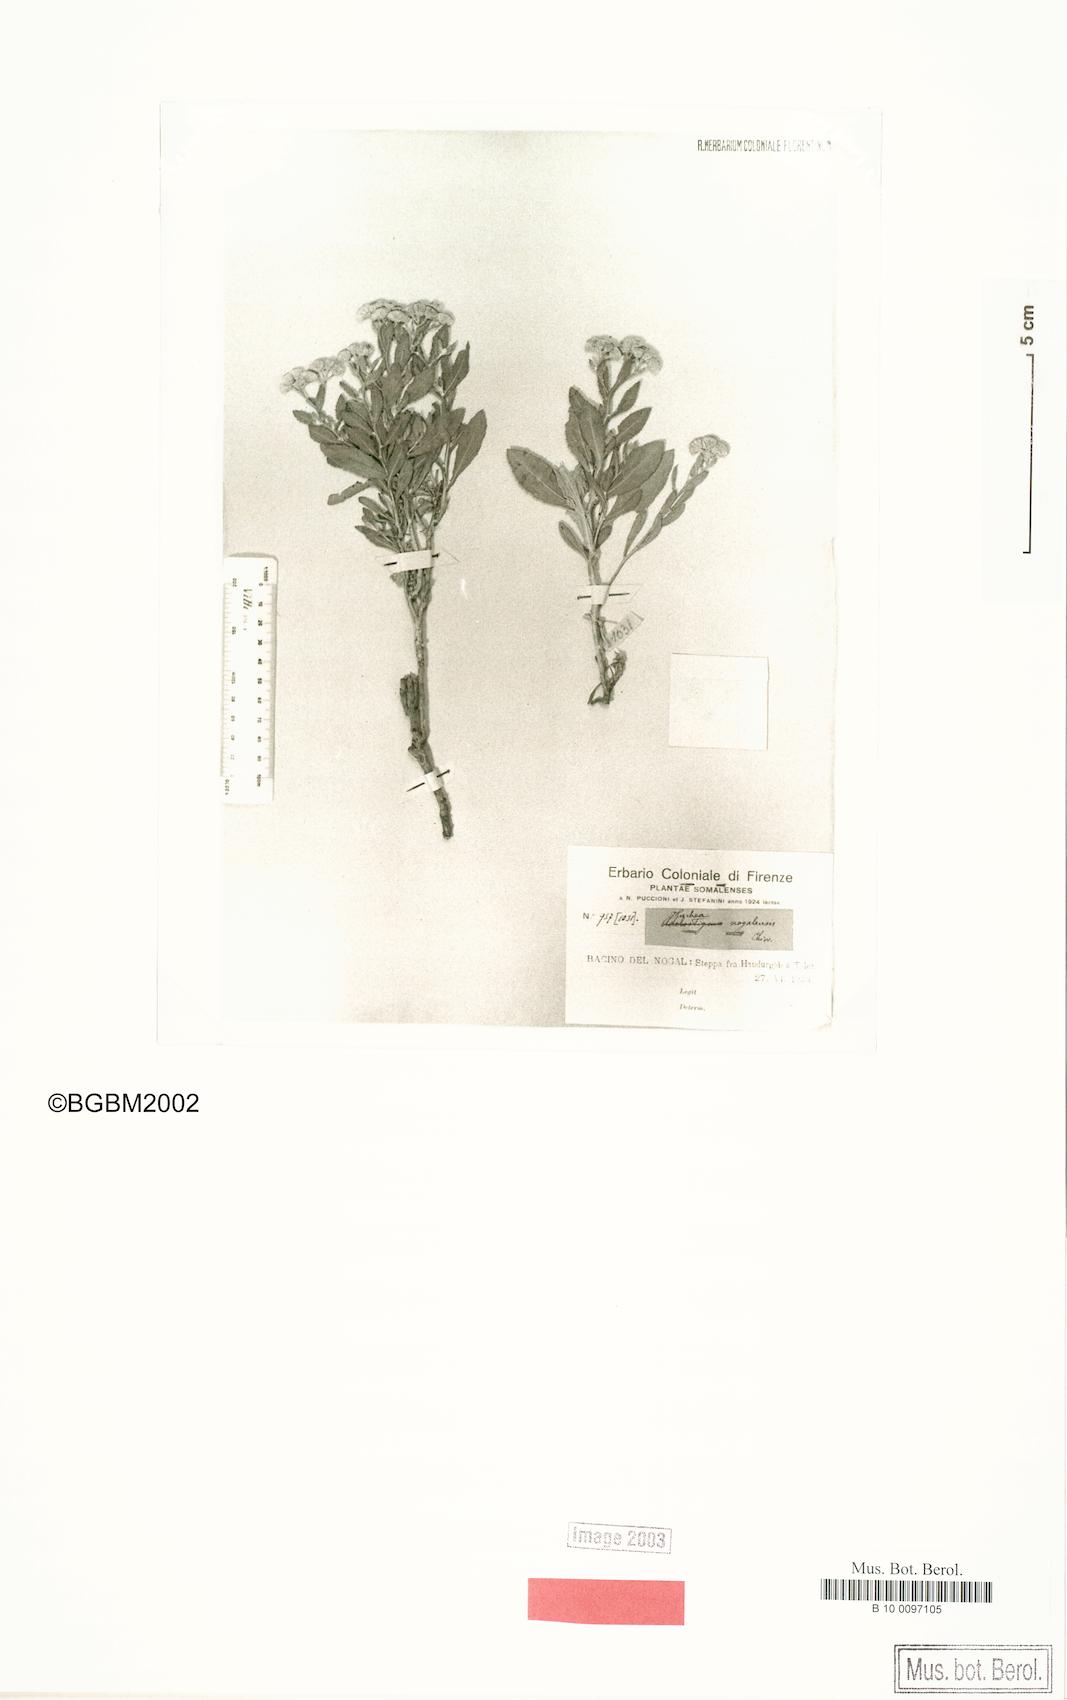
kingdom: Plantae
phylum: Tracheophyta
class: Magnoliopsida
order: Asterales
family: Asteraceae
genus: Pluchea
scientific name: Pluchea nogalensis
